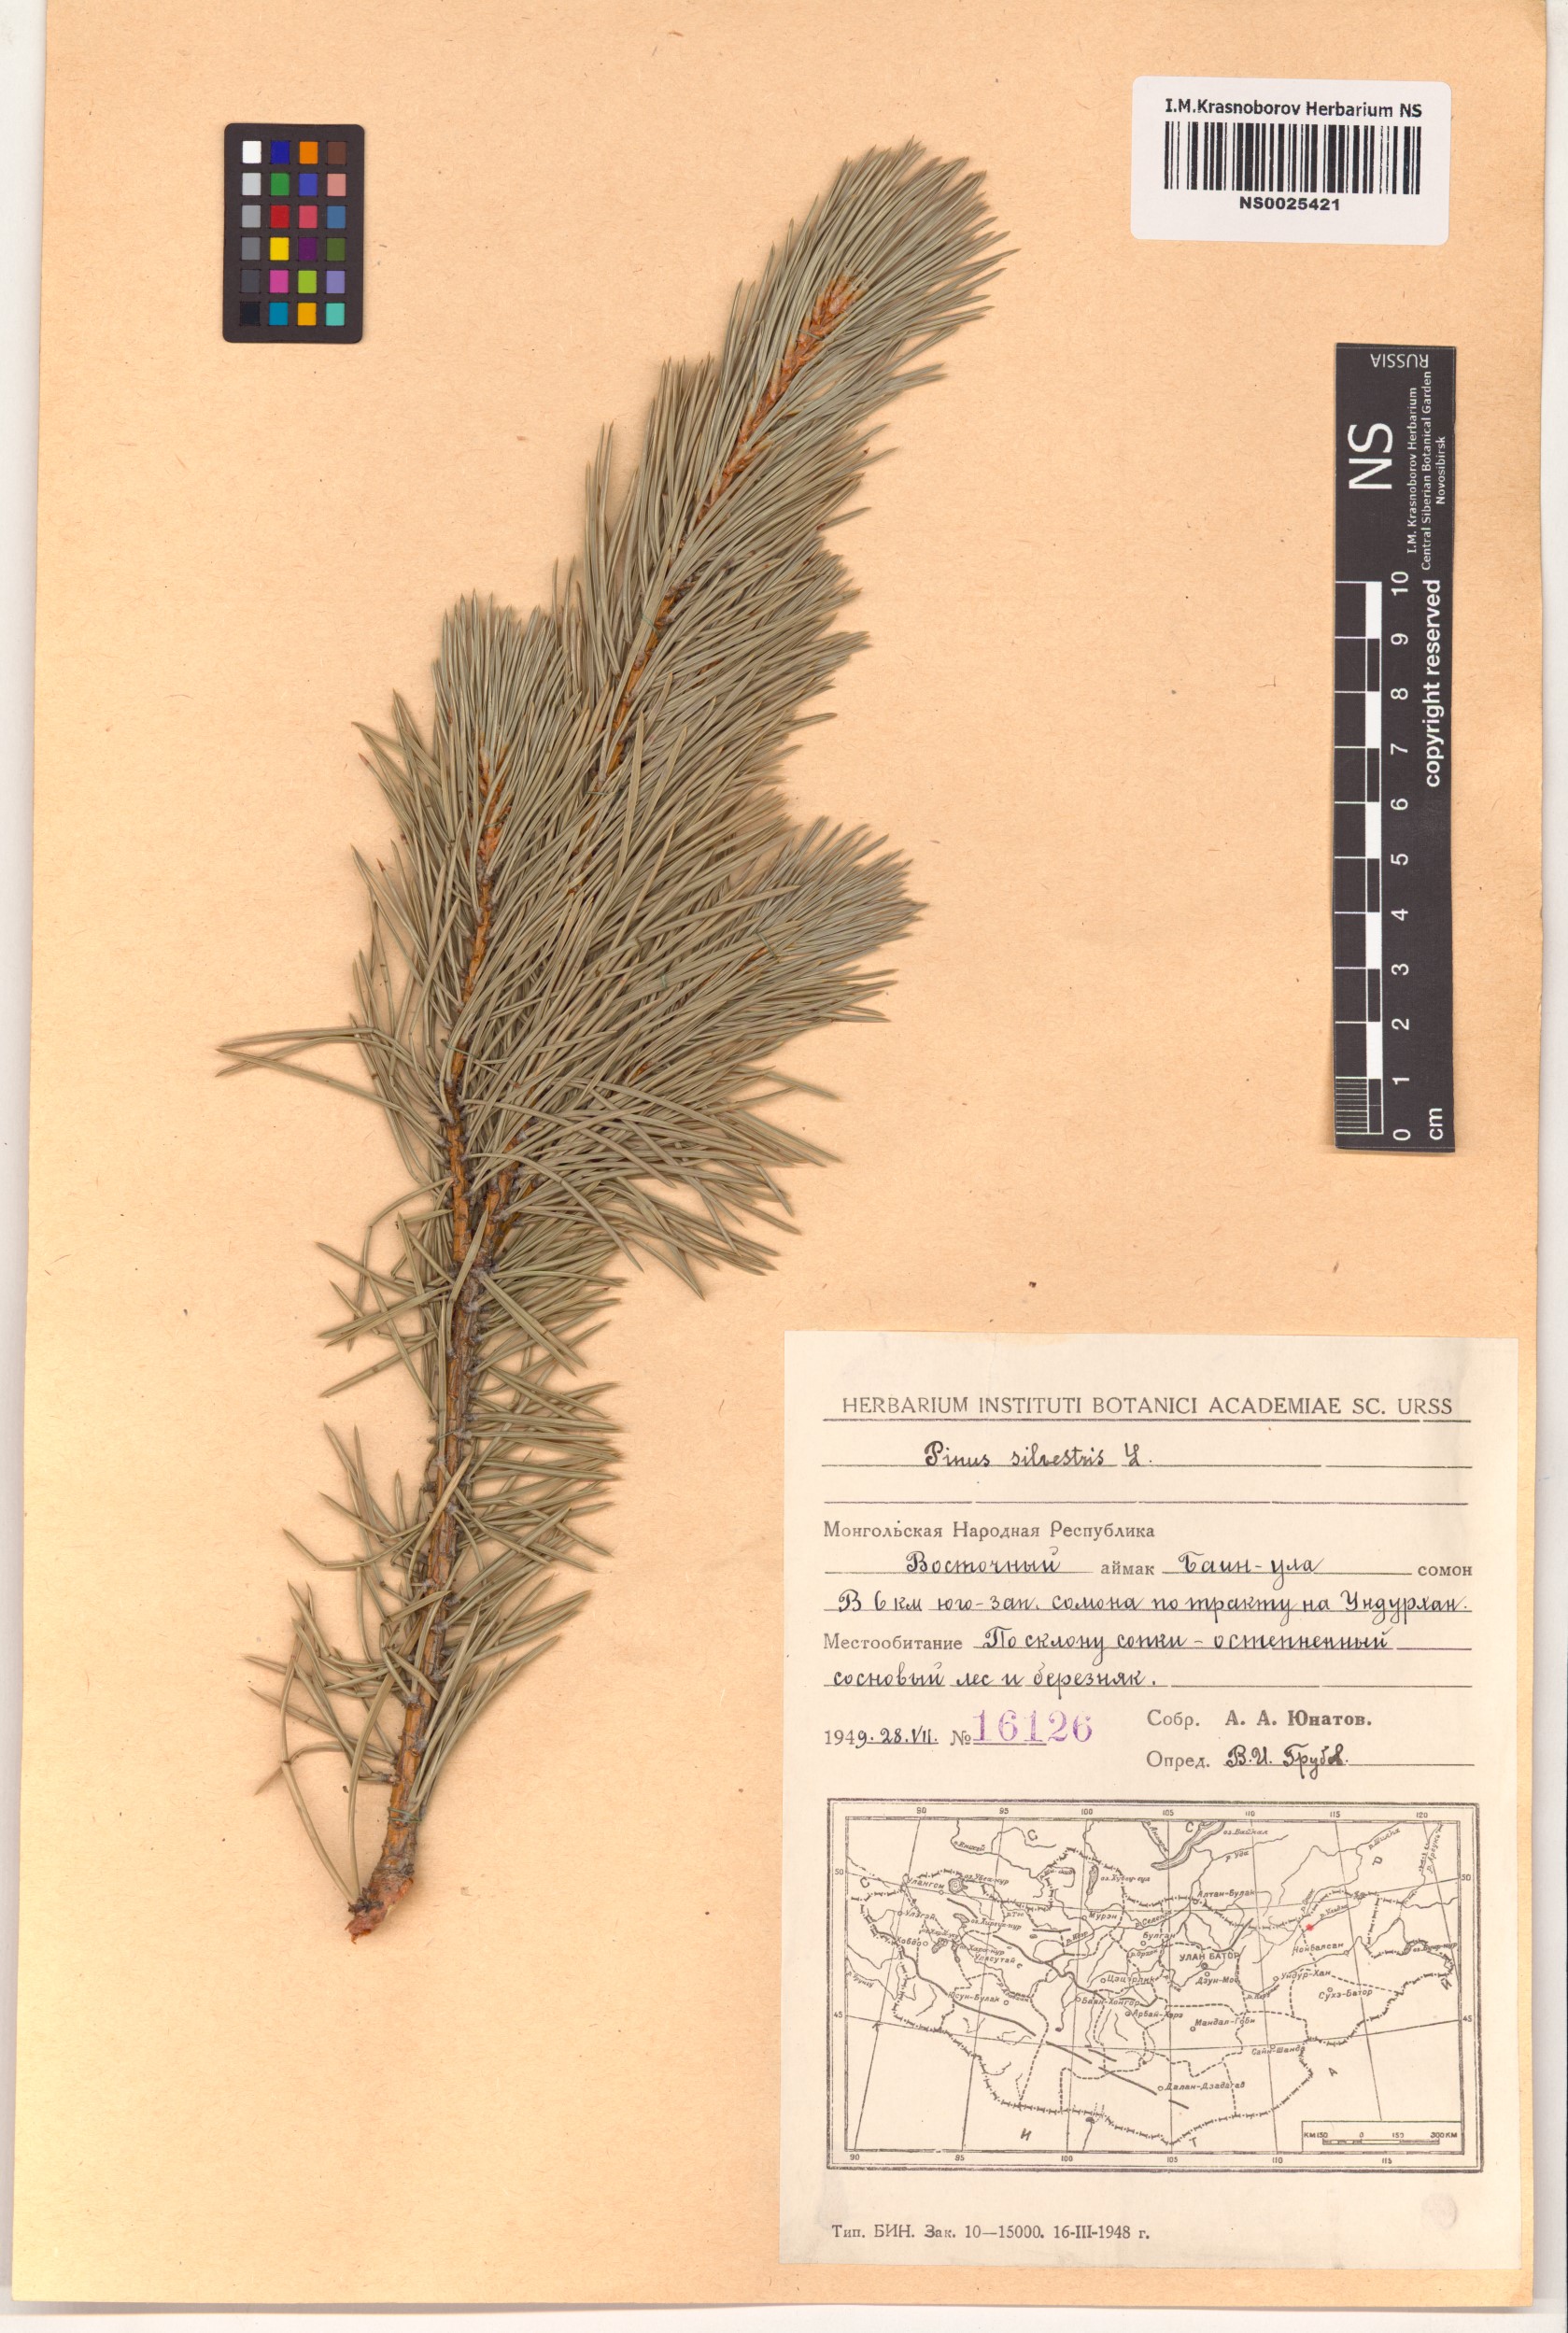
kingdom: Plantae
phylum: Tracheophyta
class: Pinopsida
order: Pinales
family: Pinaceae
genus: Pinus
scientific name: Pinus sylvestris
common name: Scots pine
